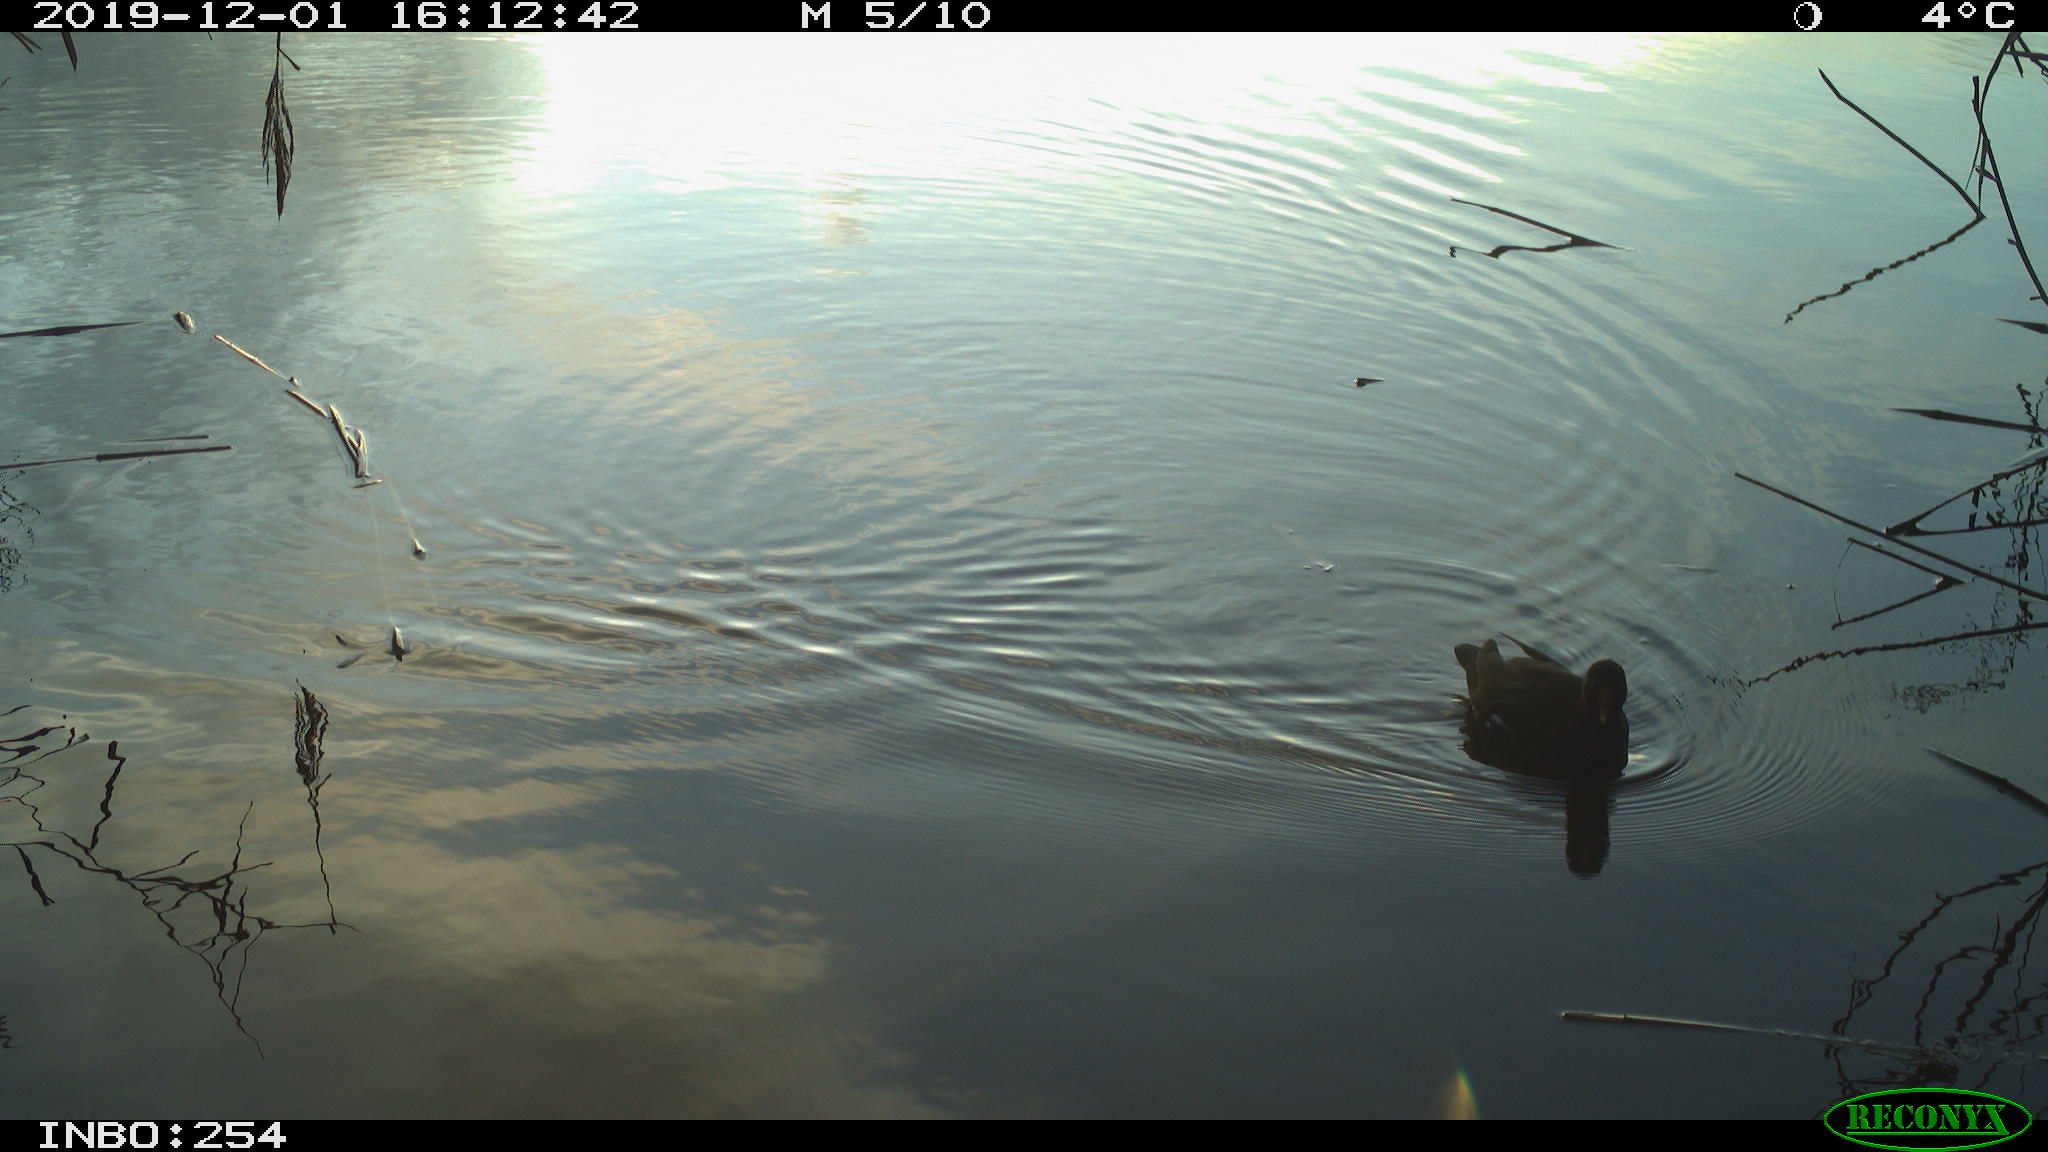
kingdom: Animalia
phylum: Chordata
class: Aves
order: Gruiformes
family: Rallidae
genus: Gallinula
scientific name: Gallinula chloropus
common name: Common moorhen
